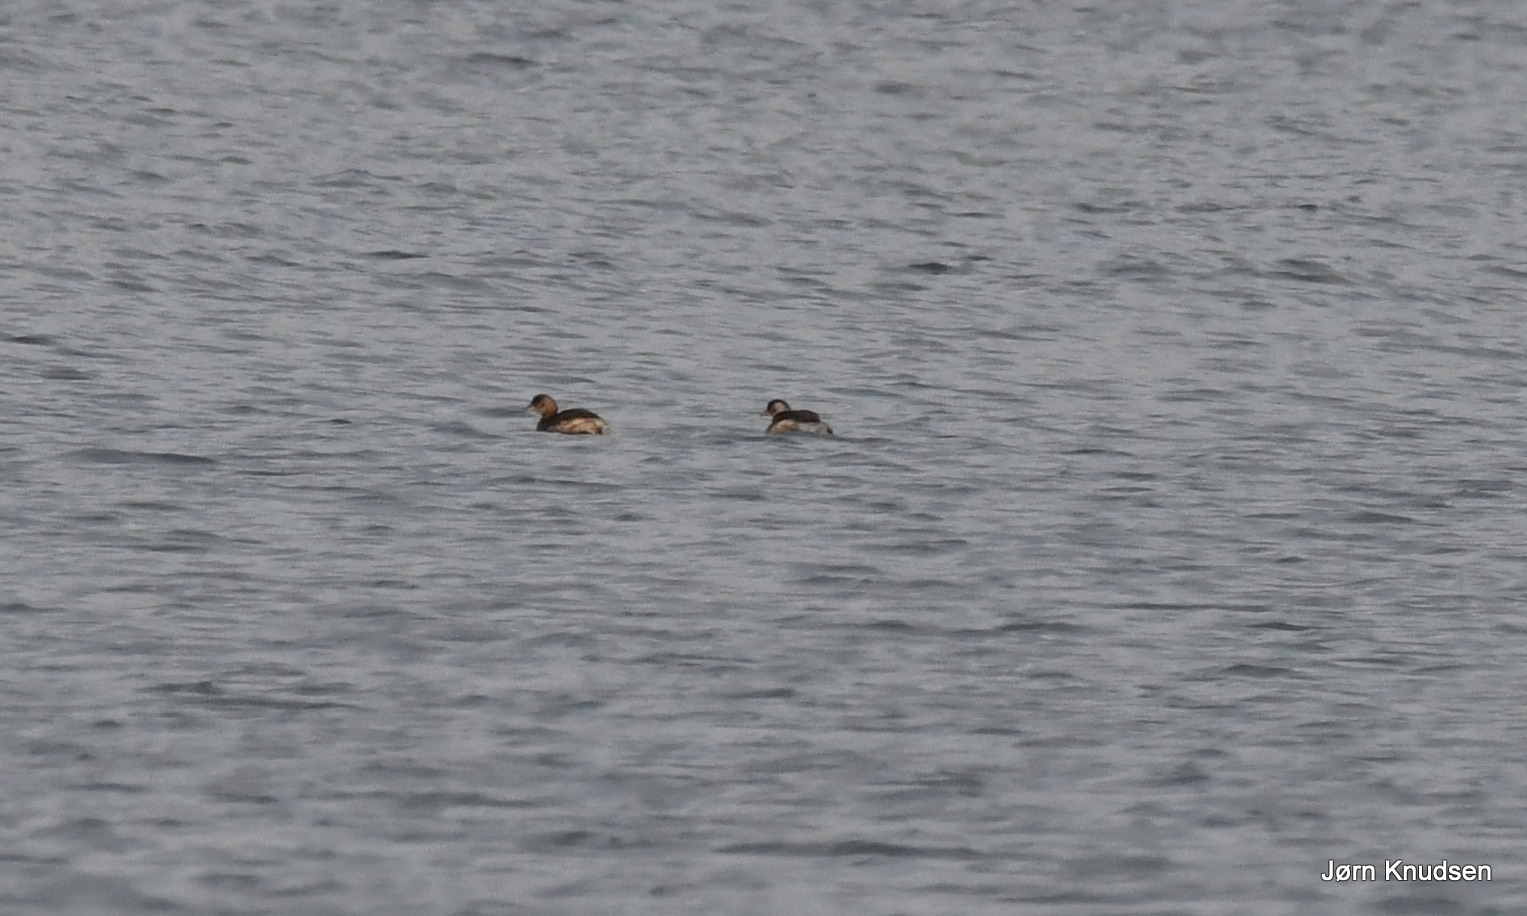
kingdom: Animalia
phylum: Chordata
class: Aves
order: Podicipediformes
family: Podicipedidae
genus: Tachybaptus
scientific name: Tachybaptus ruficollis
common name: Lille lappedykker
